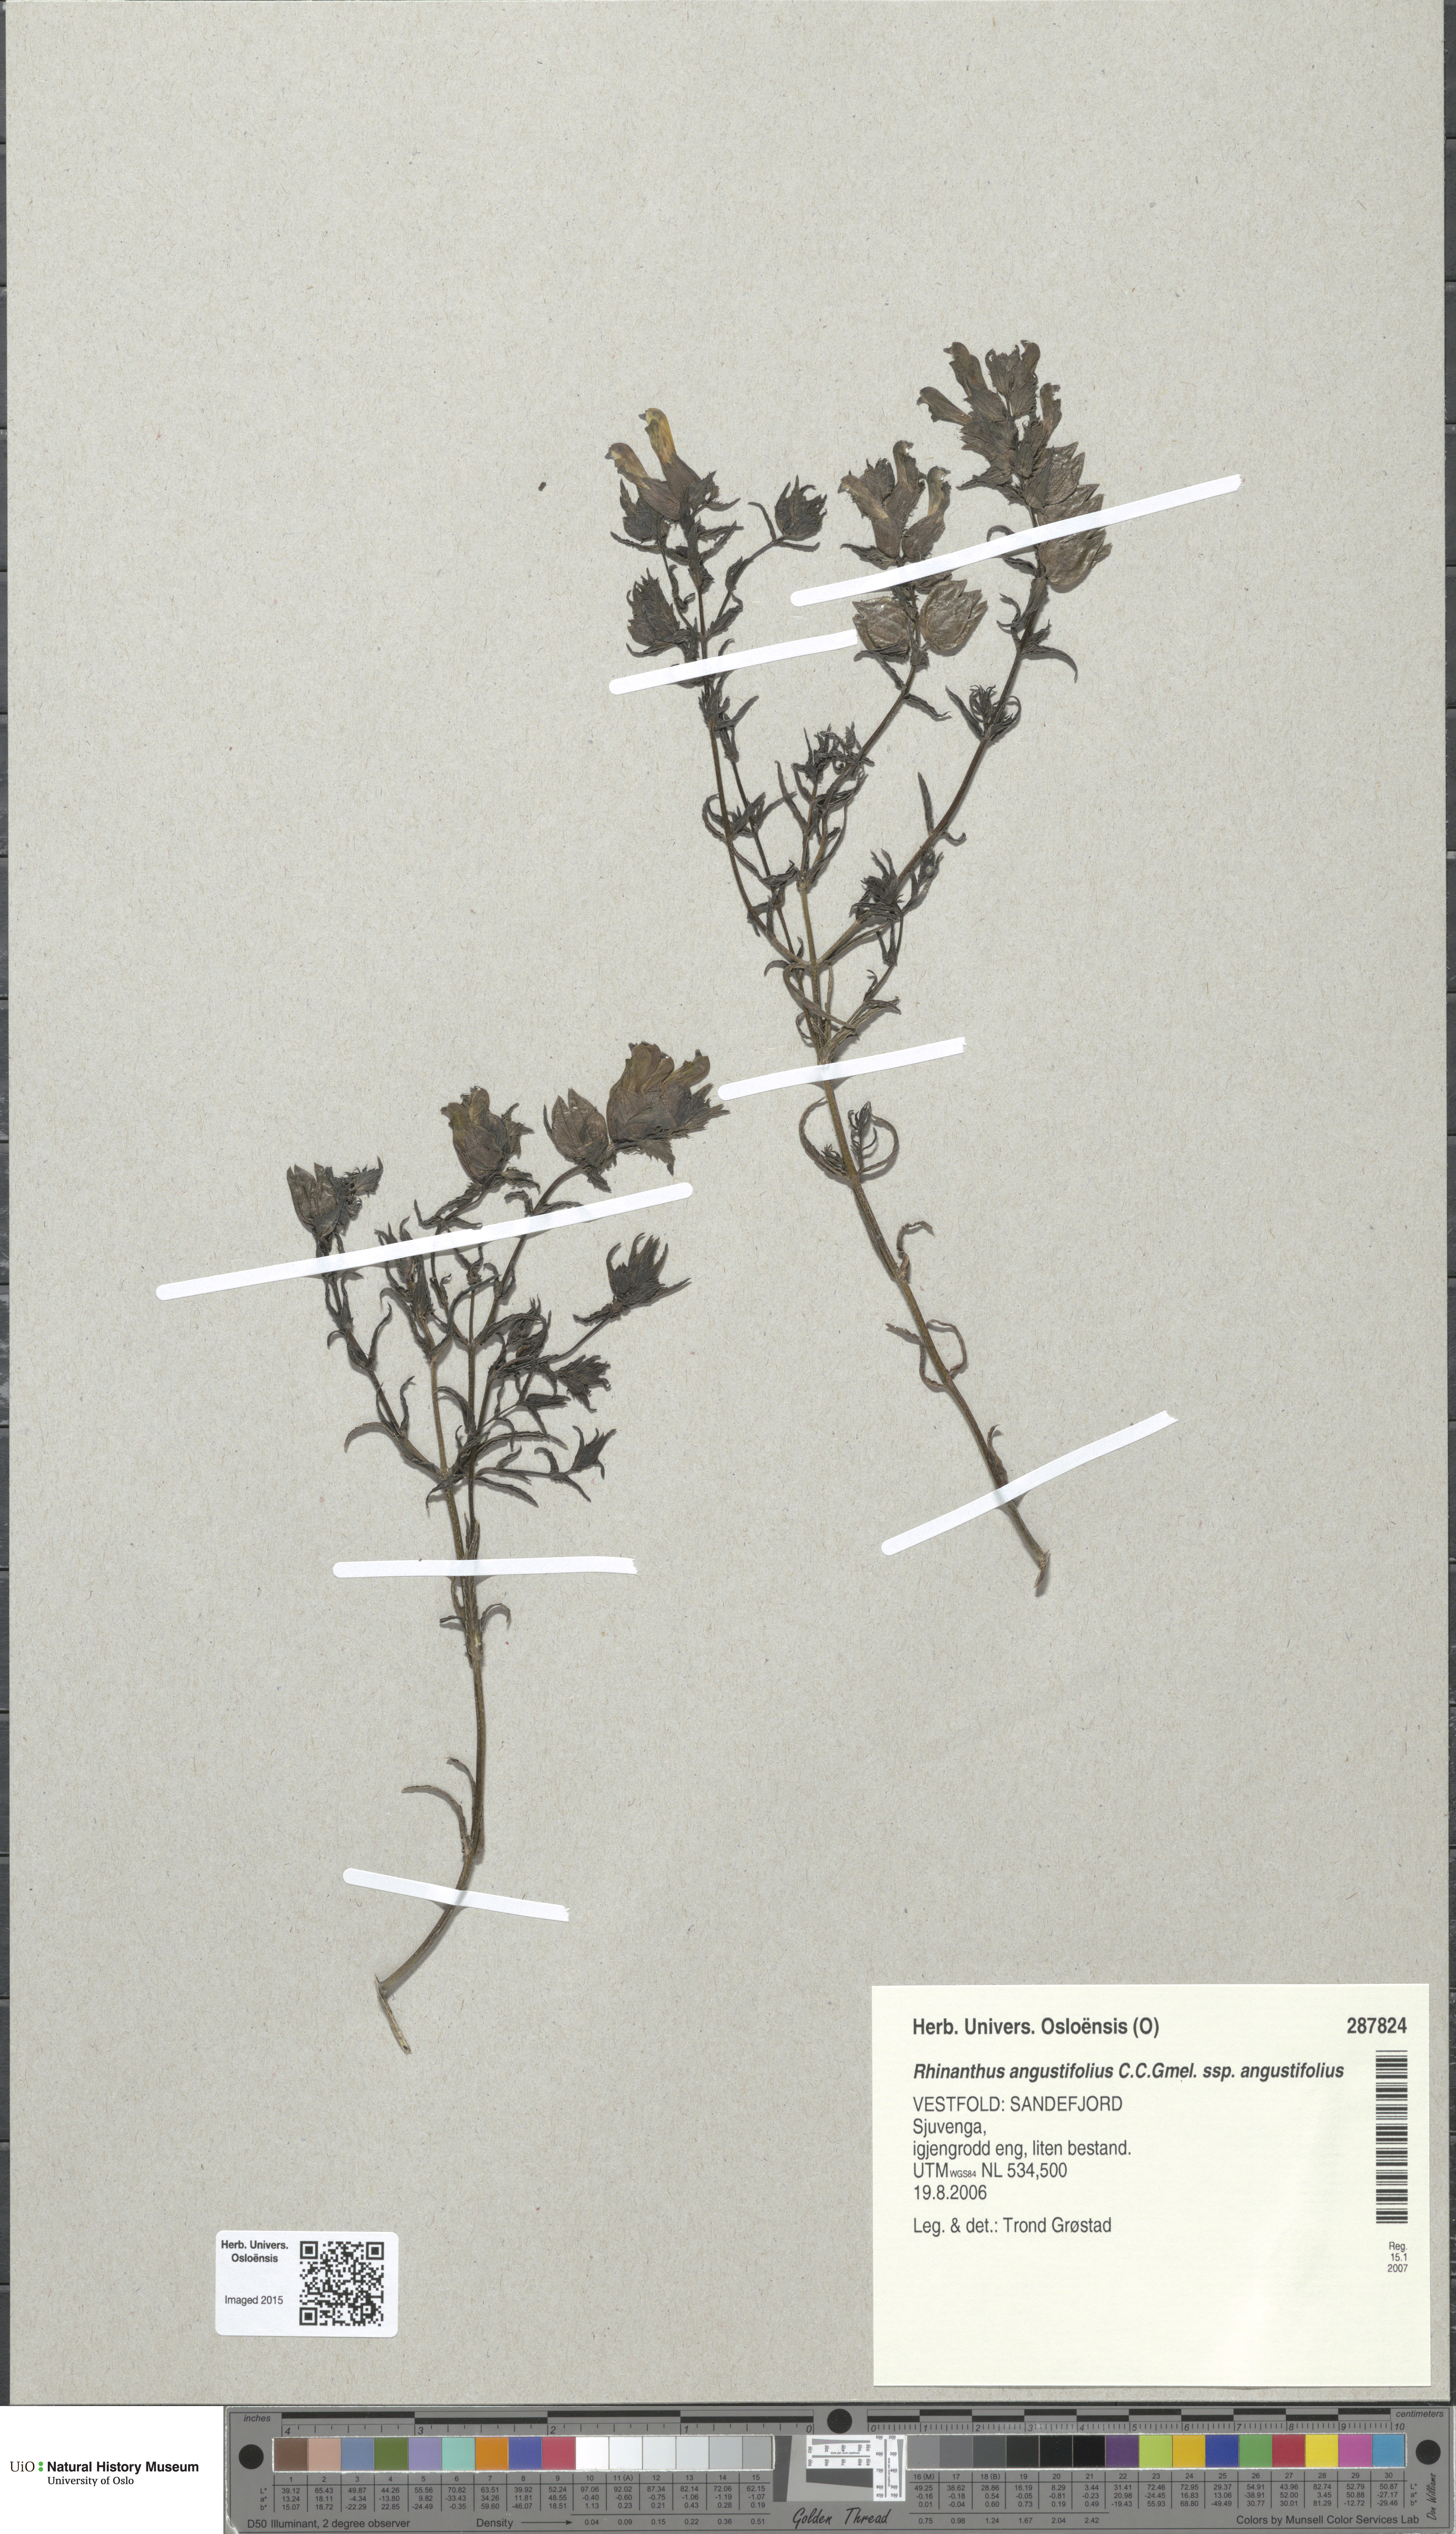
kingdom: Plantae
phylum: Tracheophyta
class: Magnoliopsida
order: Lamiales
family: Orobanchaceae
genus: Rhinanthus
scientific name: Rhinanthus
